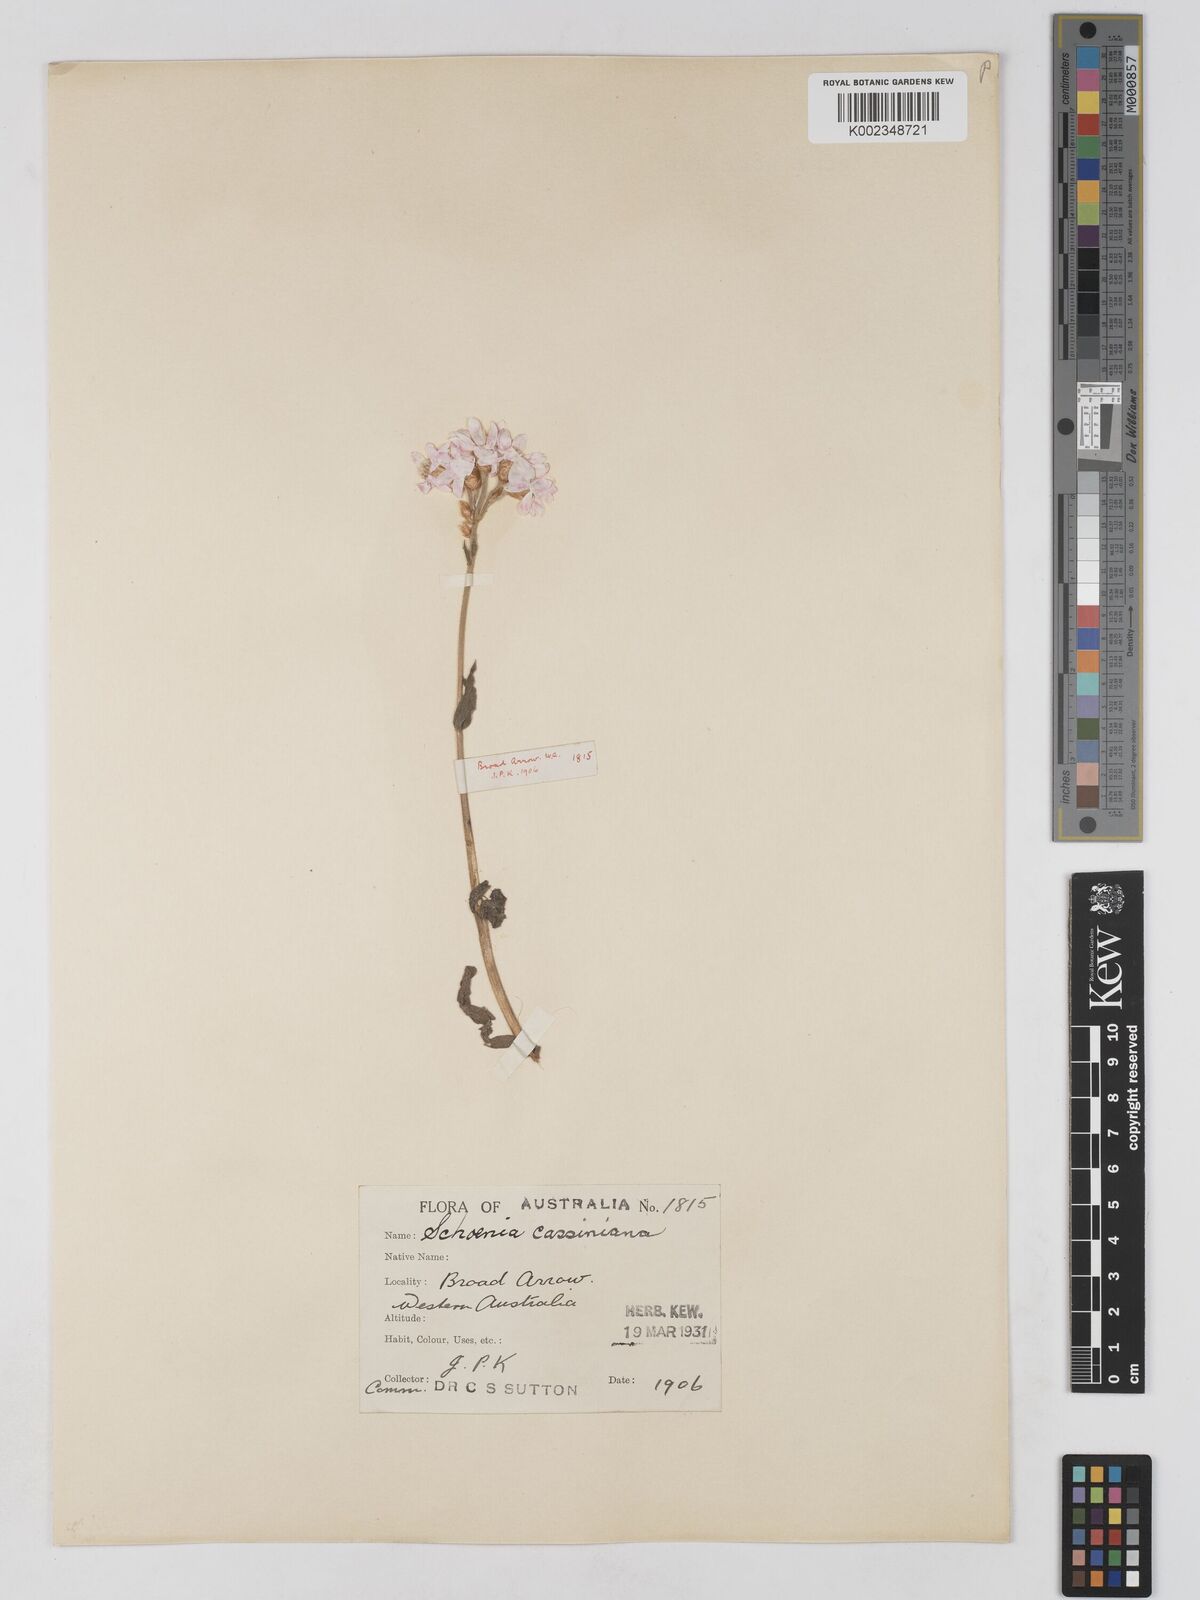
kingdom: Plantae
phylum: Tracheophyta
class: Magnoliopsida
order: Asterales
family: Asteraceae
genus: Schoenia
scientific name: Schoenia cassiniana
